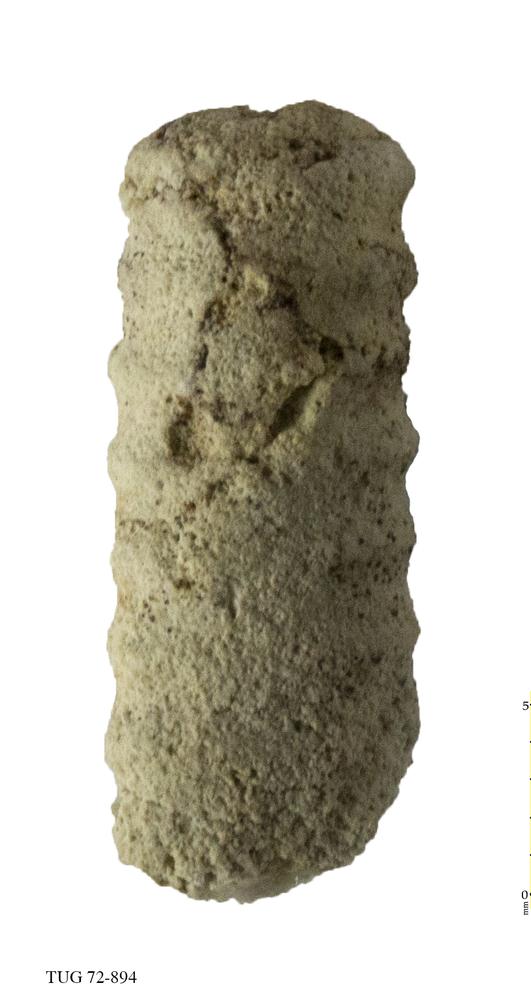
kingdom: Animalia
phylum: Mollusca
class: Cephalopoda
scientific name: Cephalopoda
